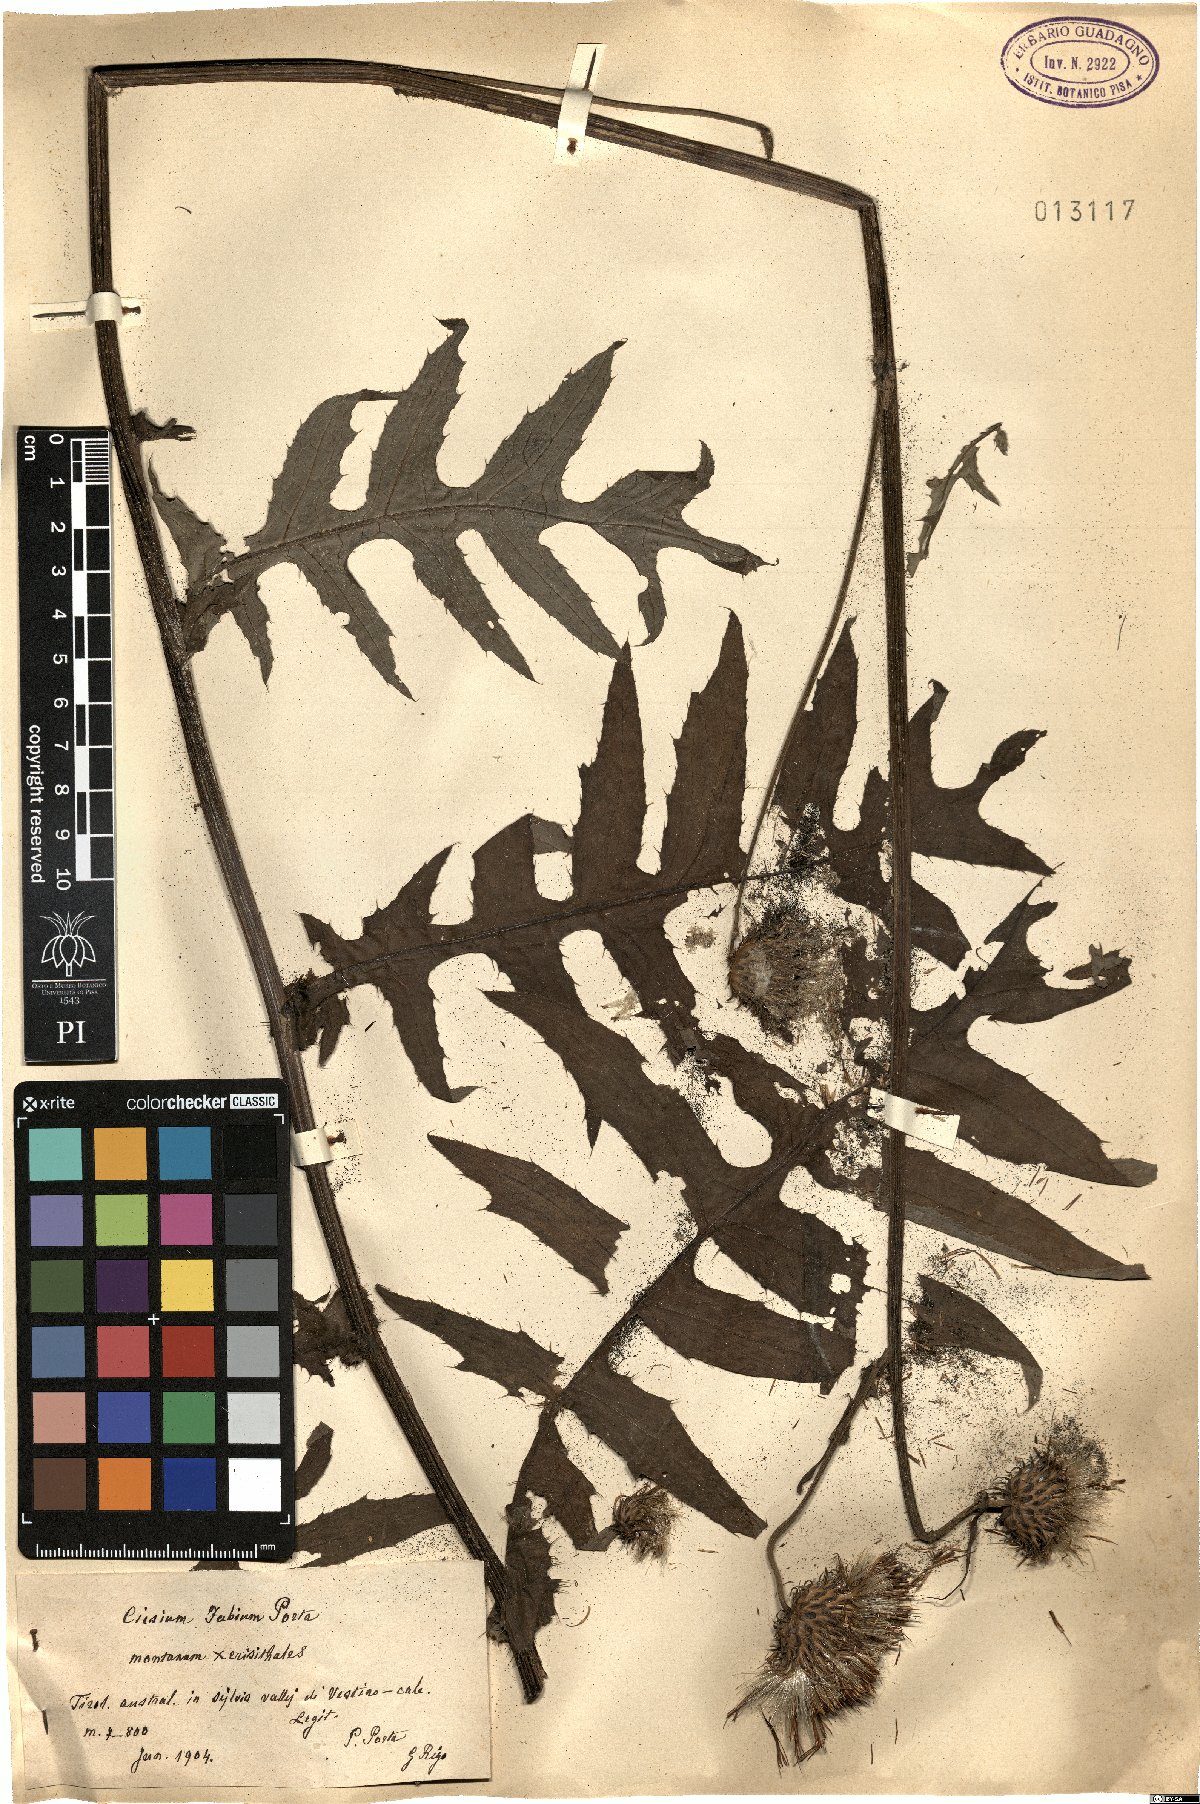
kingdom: Plantae
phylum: Tracheophyta
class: Magnoliopsida
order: Asterales
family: Asteraceae
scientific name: Asteraceae
